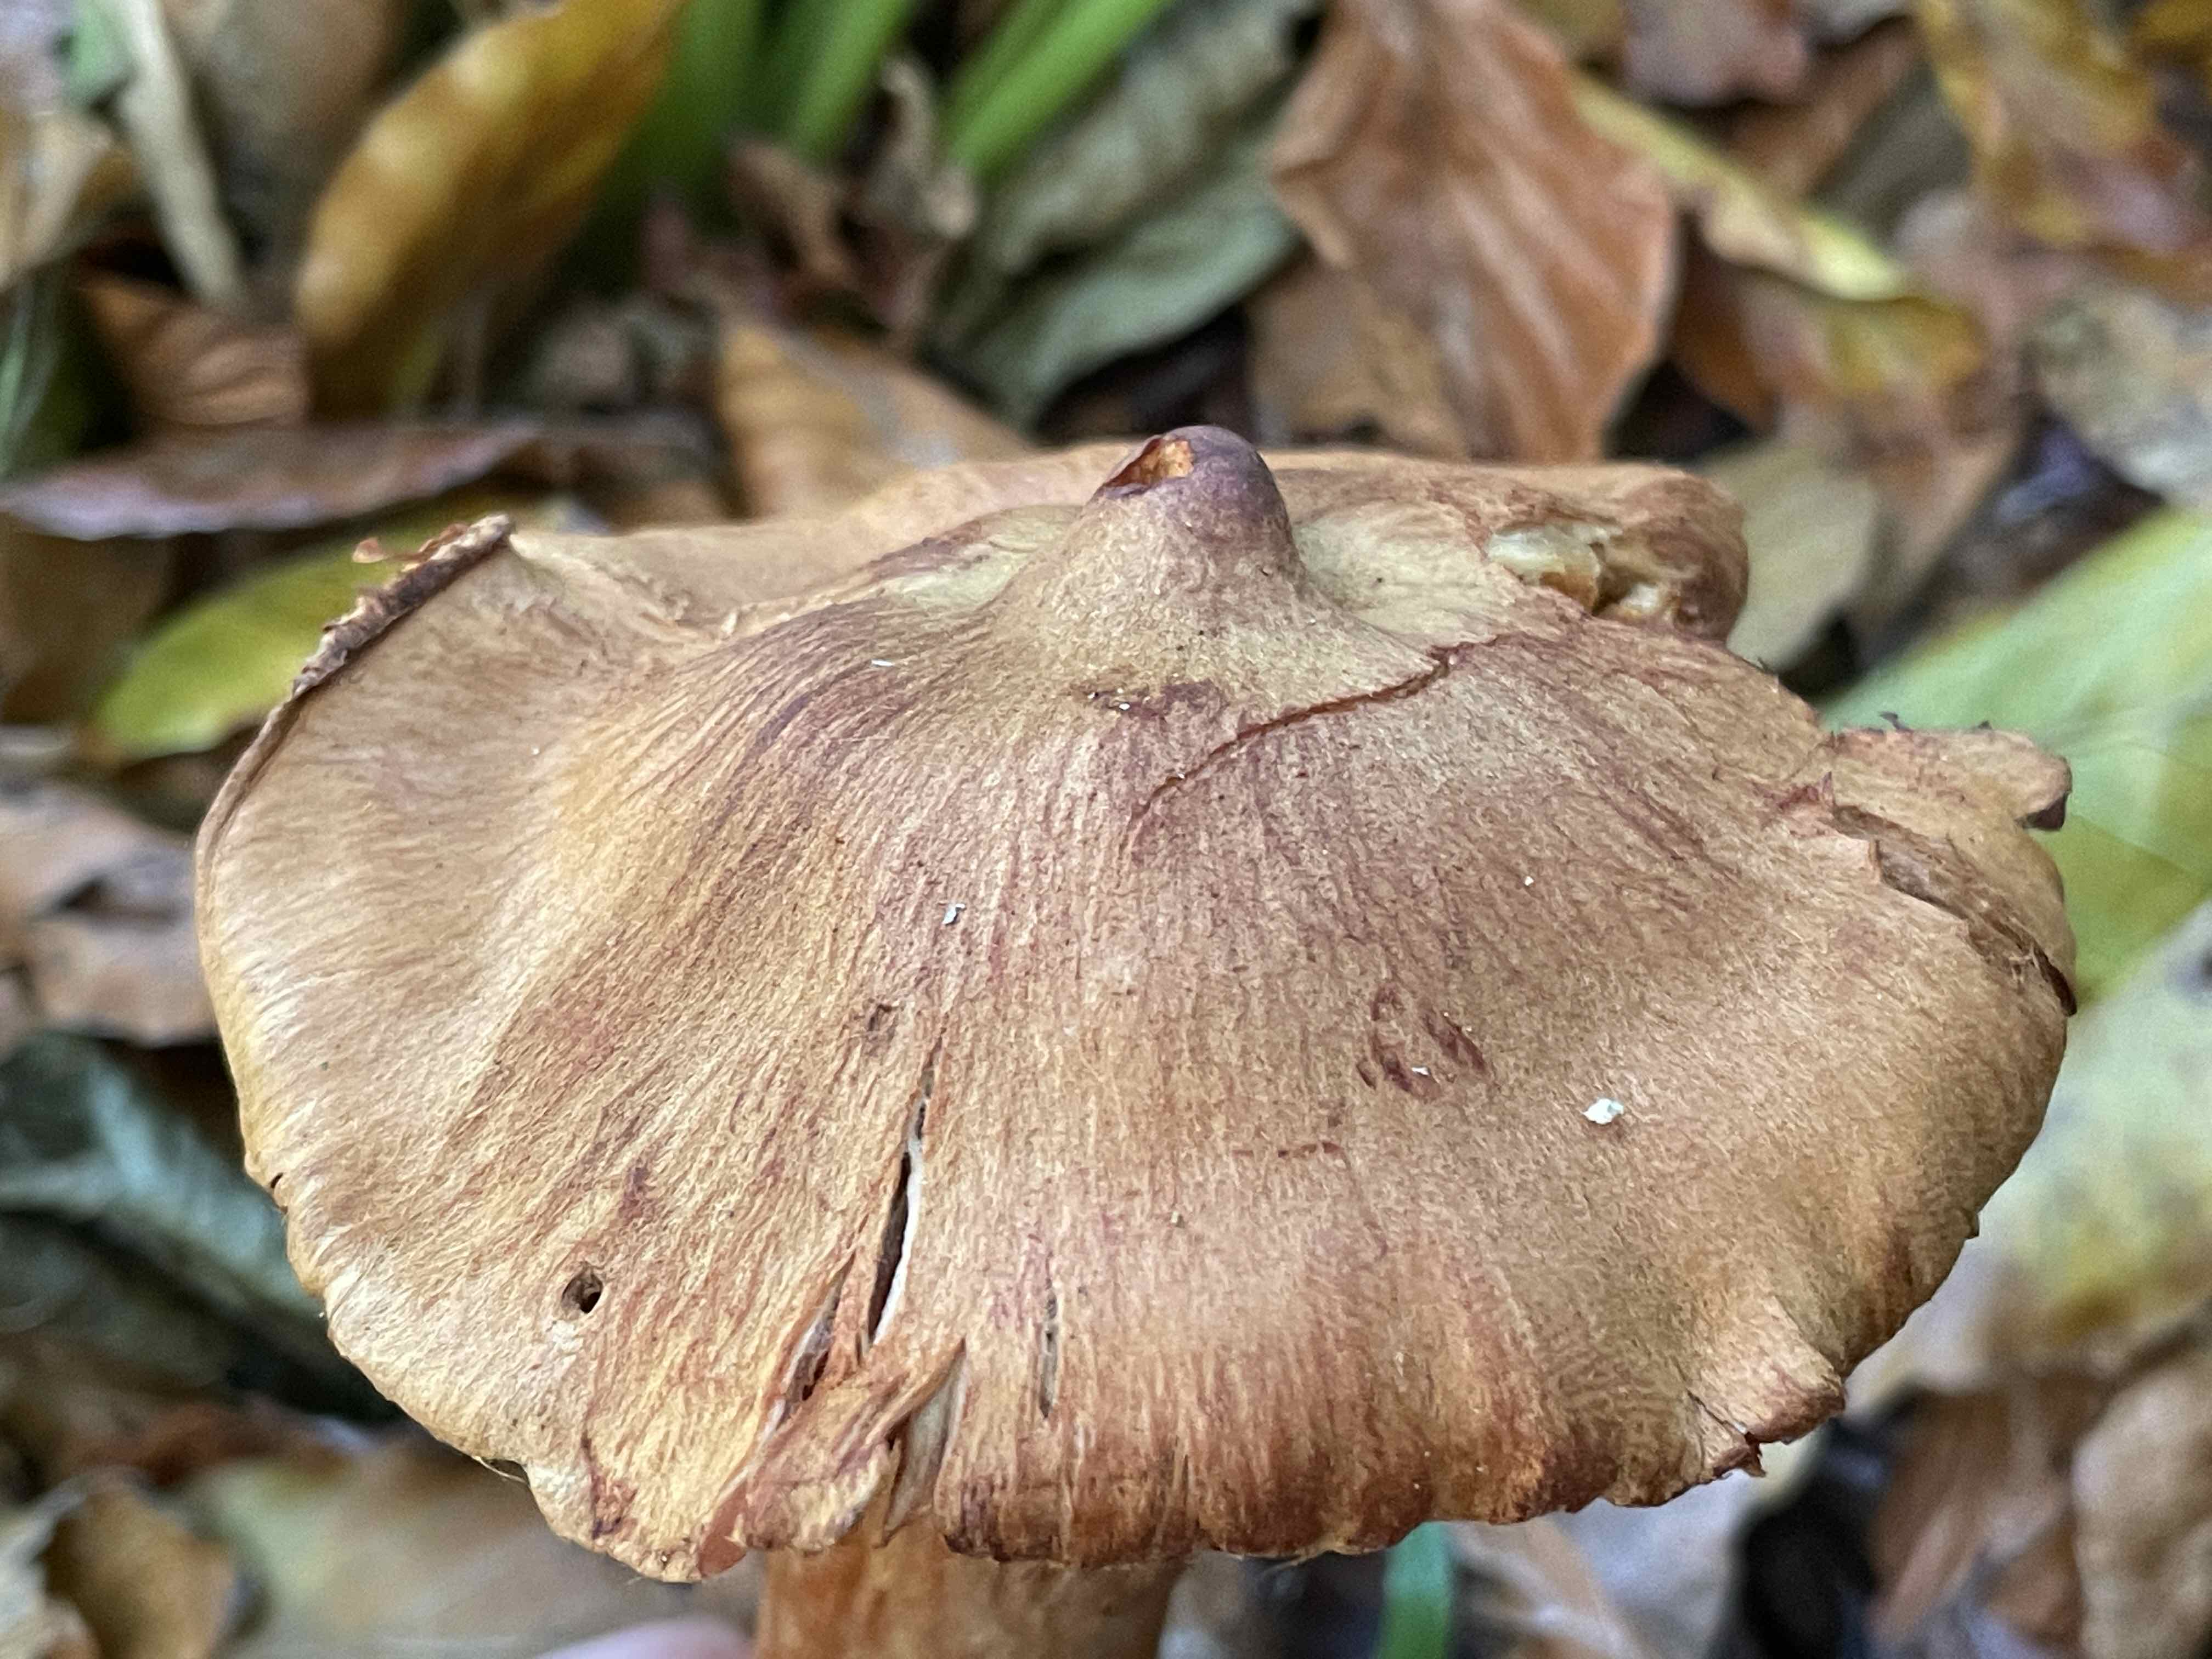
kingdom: Fungi
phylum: Basidiomycota
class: Agaricomycetes
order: Agaricales
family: Cortinariaceae
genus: Cortinarius
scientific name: Cortinarius
